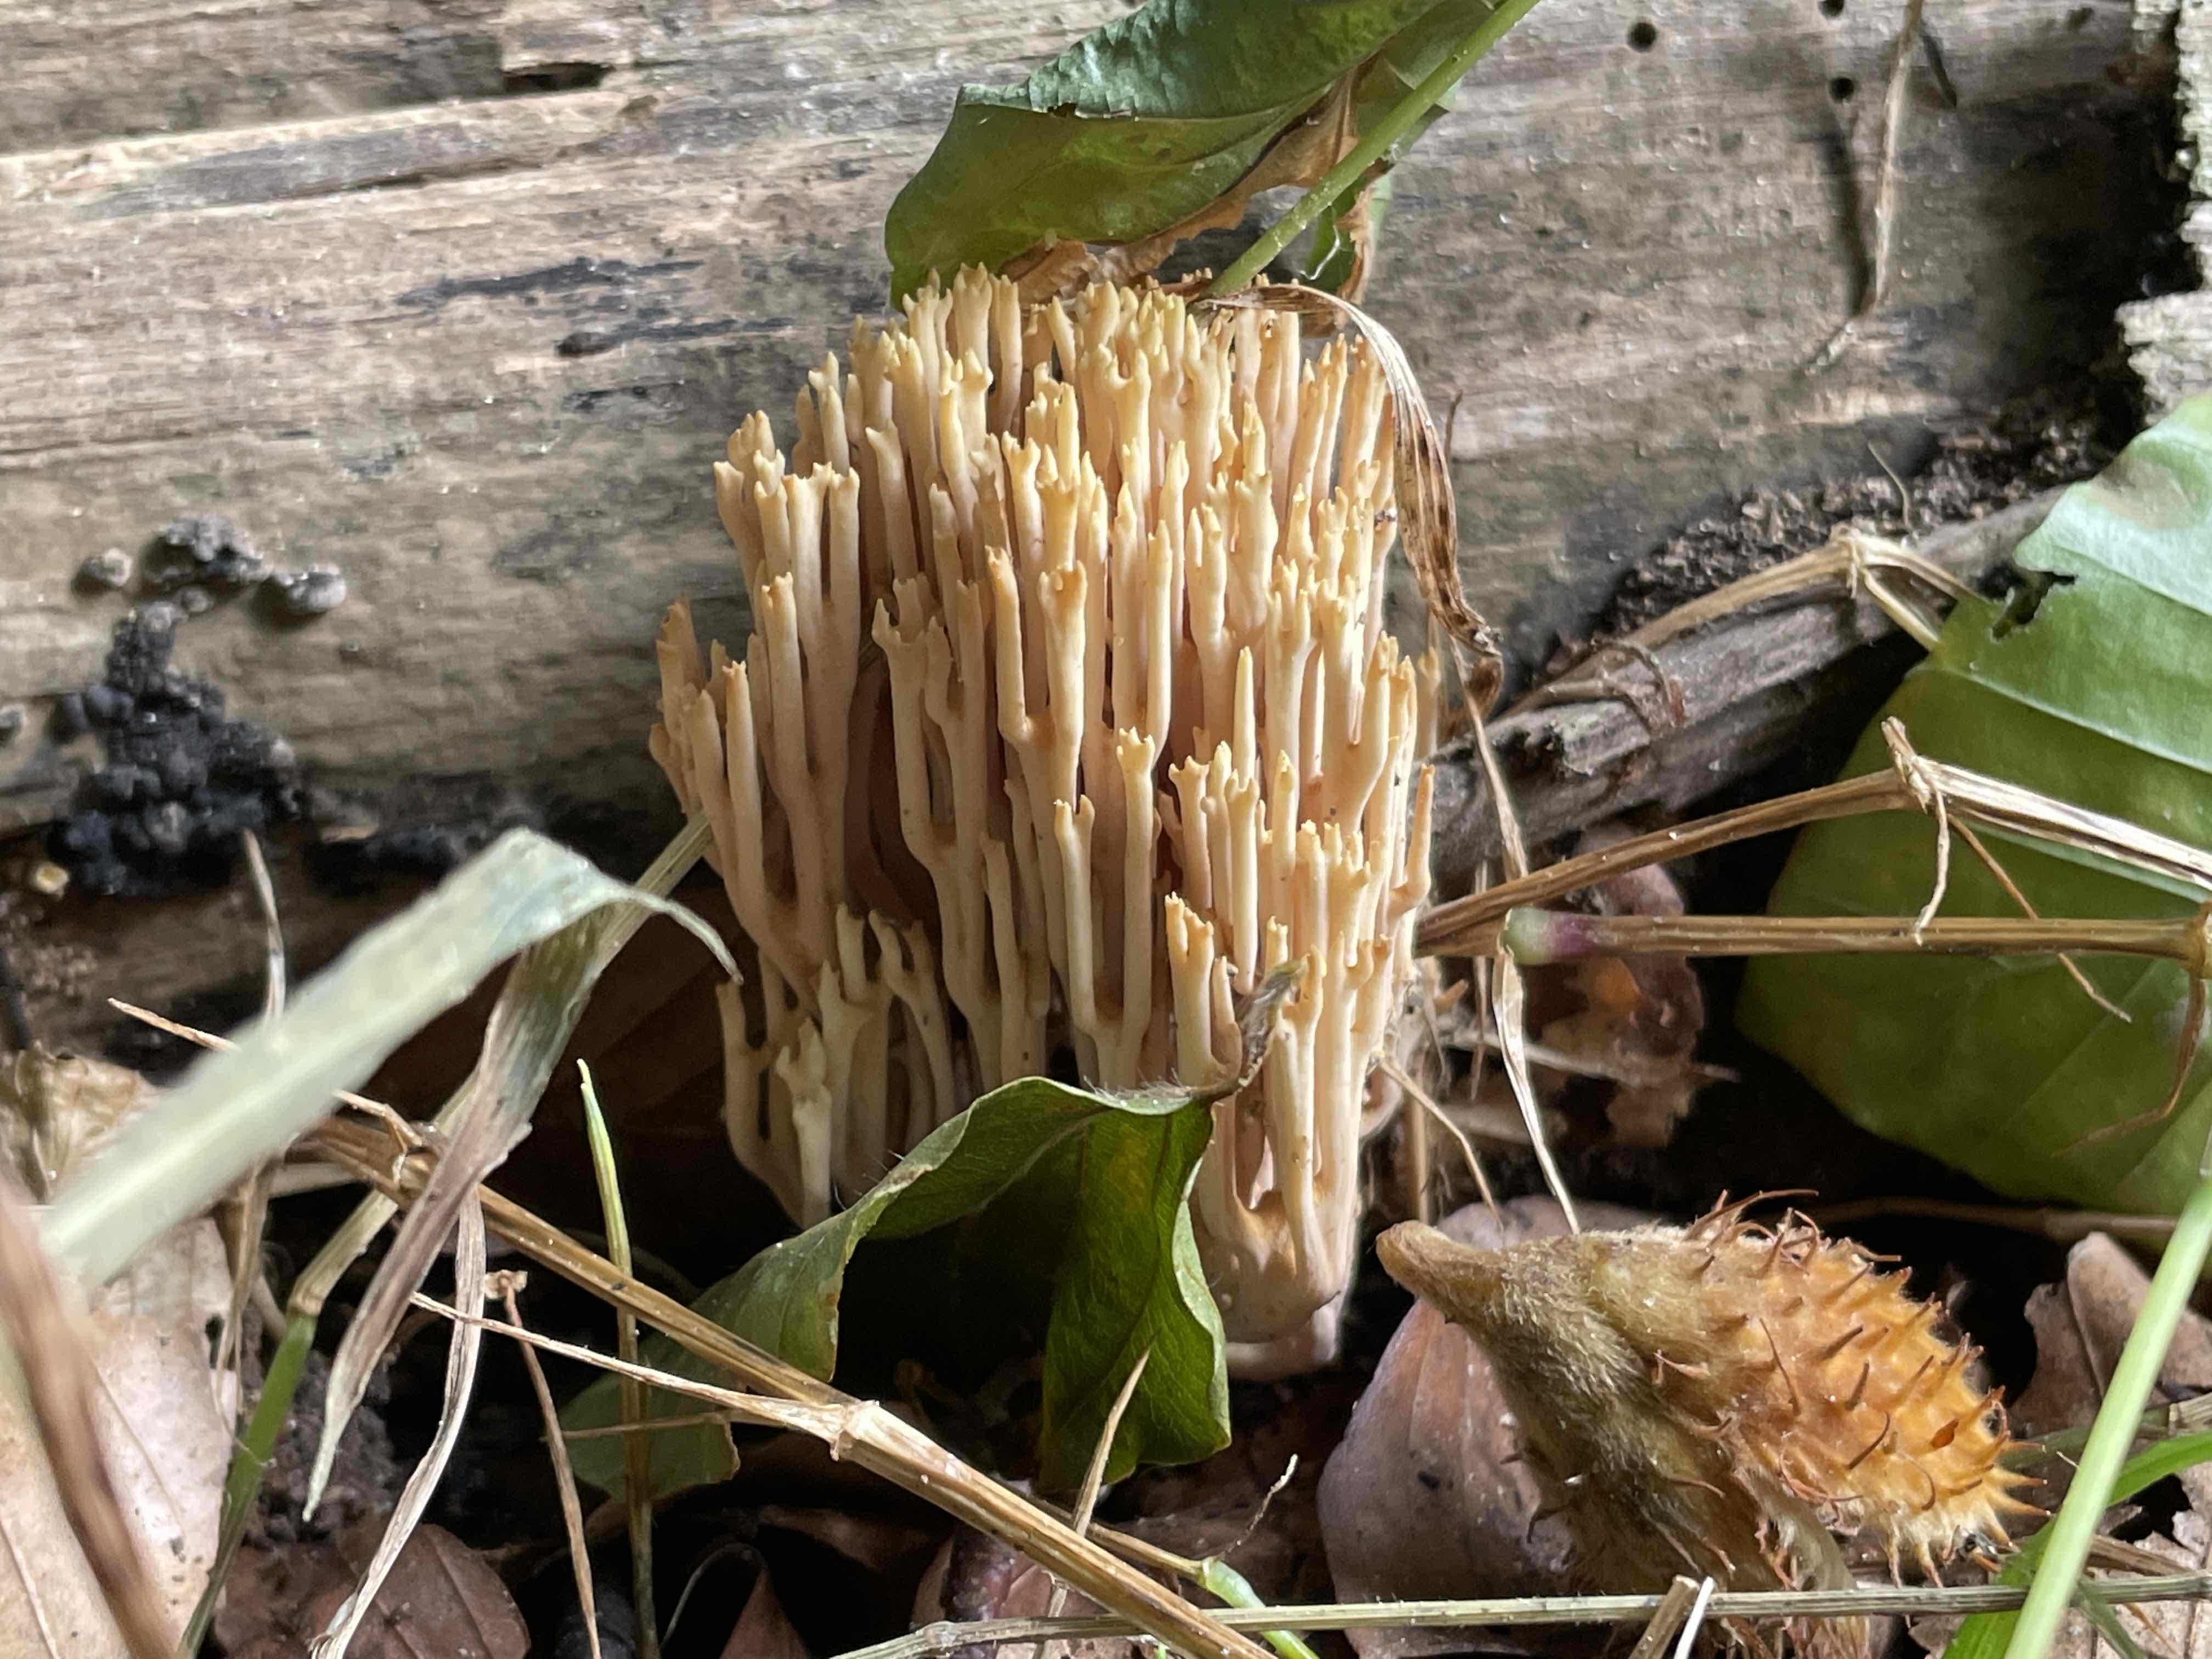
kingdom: Fungi
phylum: Basidiomycota
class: Agaricomycetes
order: Gomphales
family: Gomphaceae
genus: Ramaria
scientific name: Ramaria stricta
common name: rank koralsvamp
